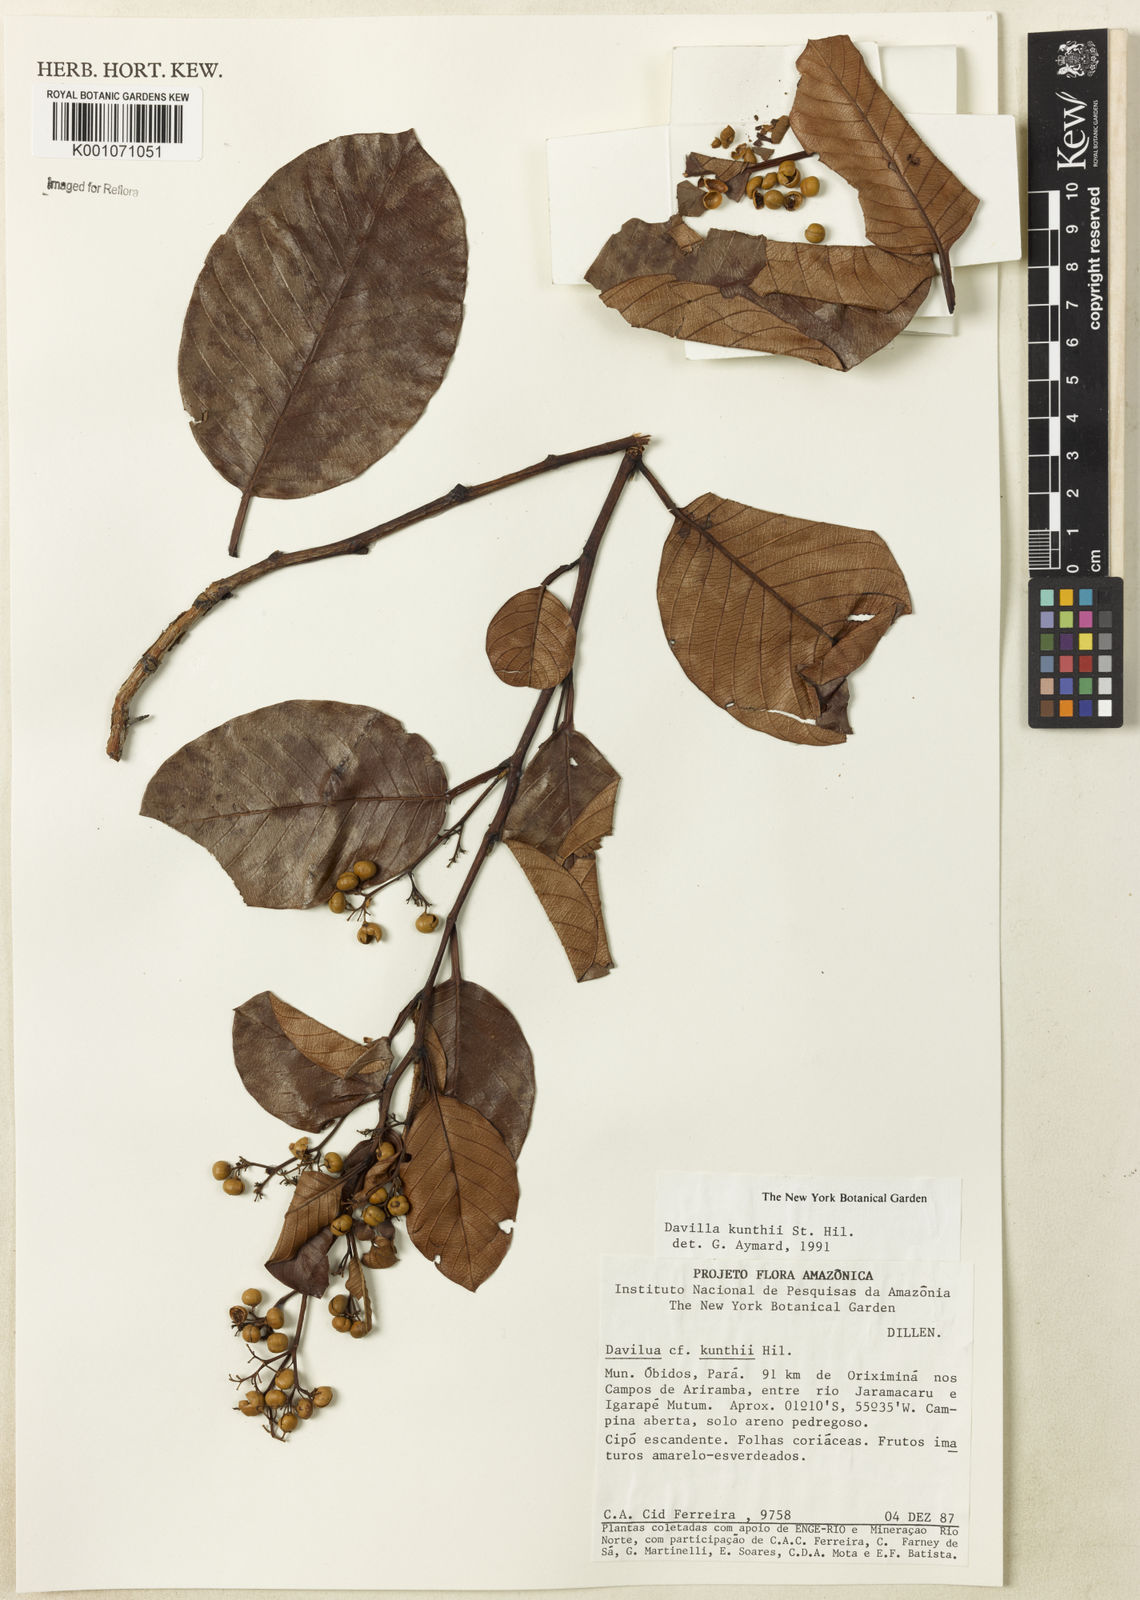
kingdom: Plantae
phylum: Tracheophyta
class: Magnoliopsida
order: Dilleniales
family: Dilleniaceae
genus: Davilla
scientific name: Davilla kunthii
